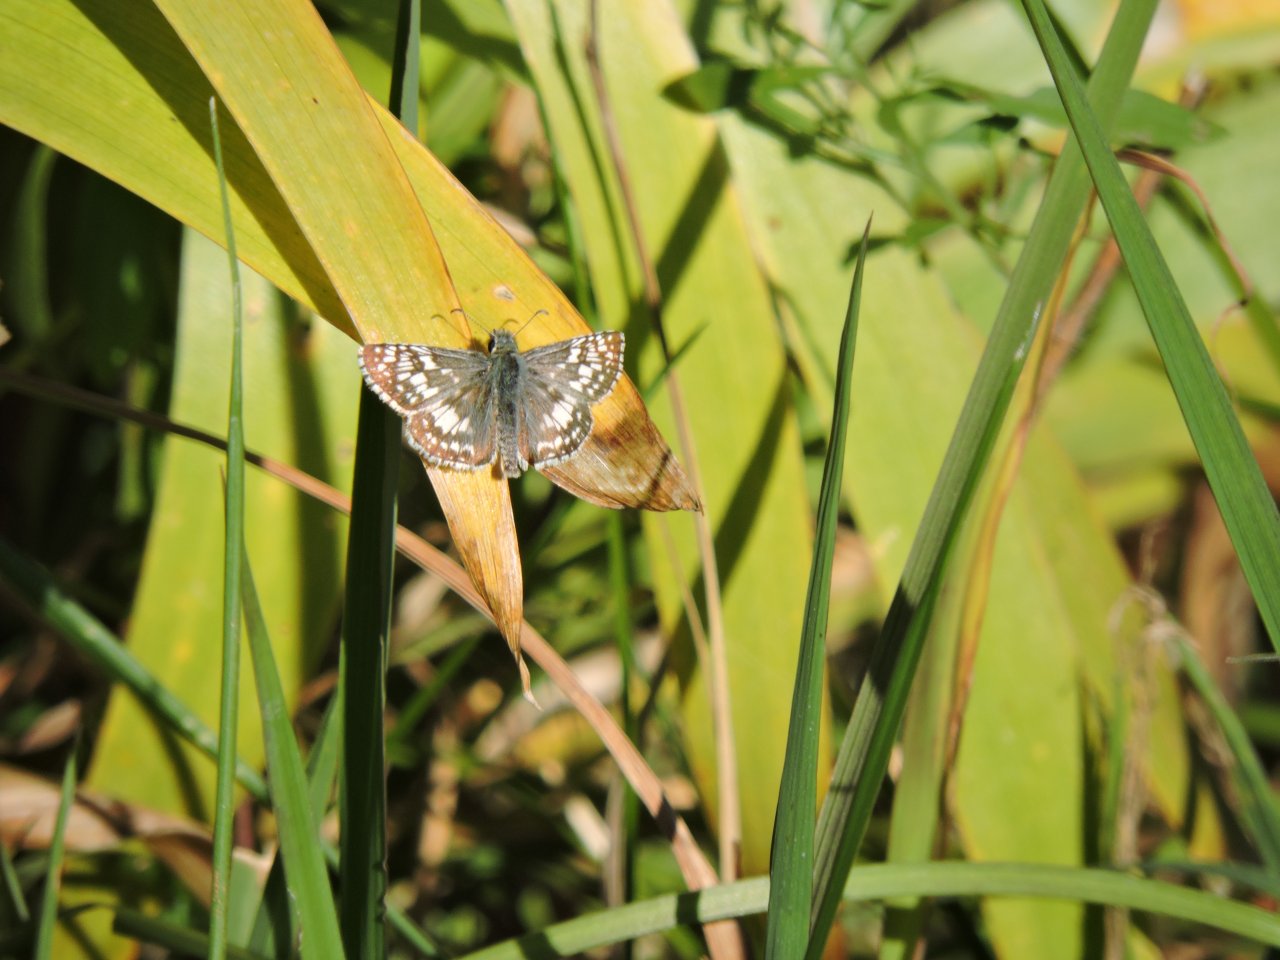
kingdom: Animalia
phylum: Arthropoda
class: Insecta
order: Lepidoptera
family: Hesperiidae
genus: Pyrgus
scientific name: Pyrgus
